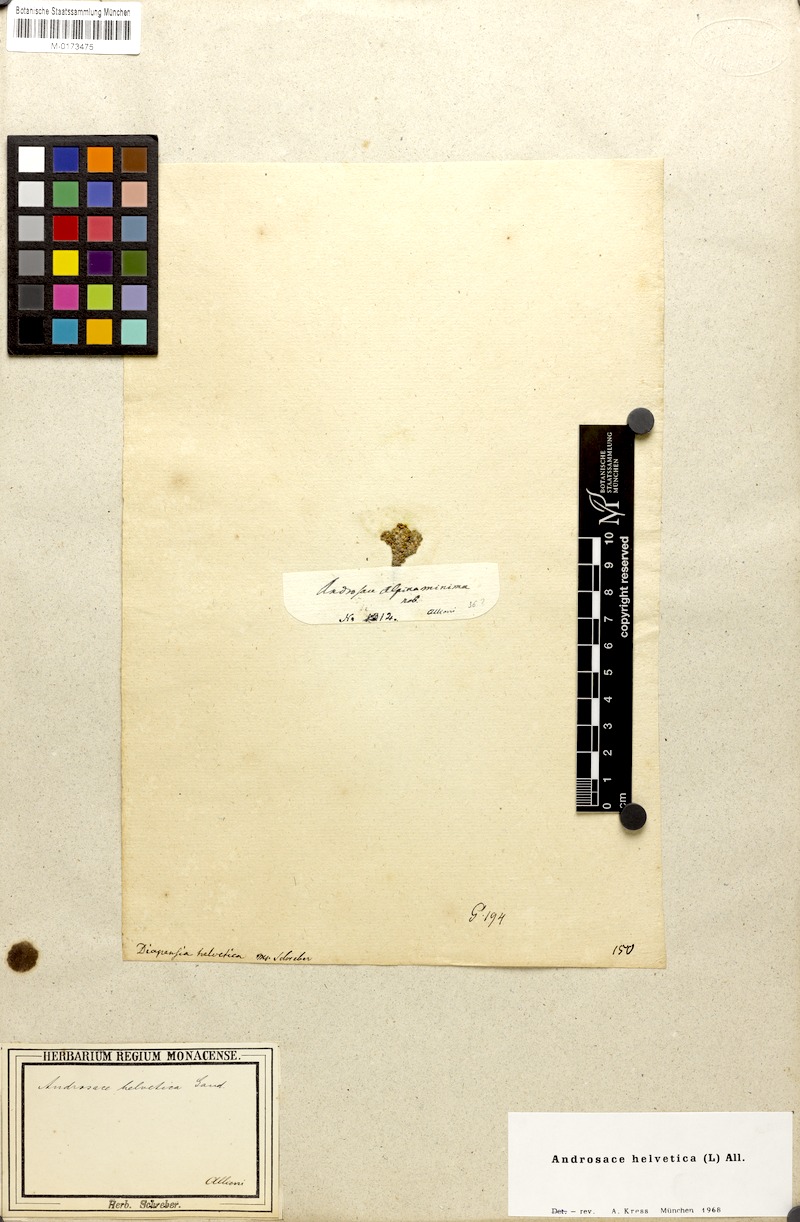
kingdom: Plantae
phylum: Tracheophyta
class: Magnoliopsida
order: Ericales
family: Primulaceae
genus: Androsace
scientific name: Androsace helvetica
